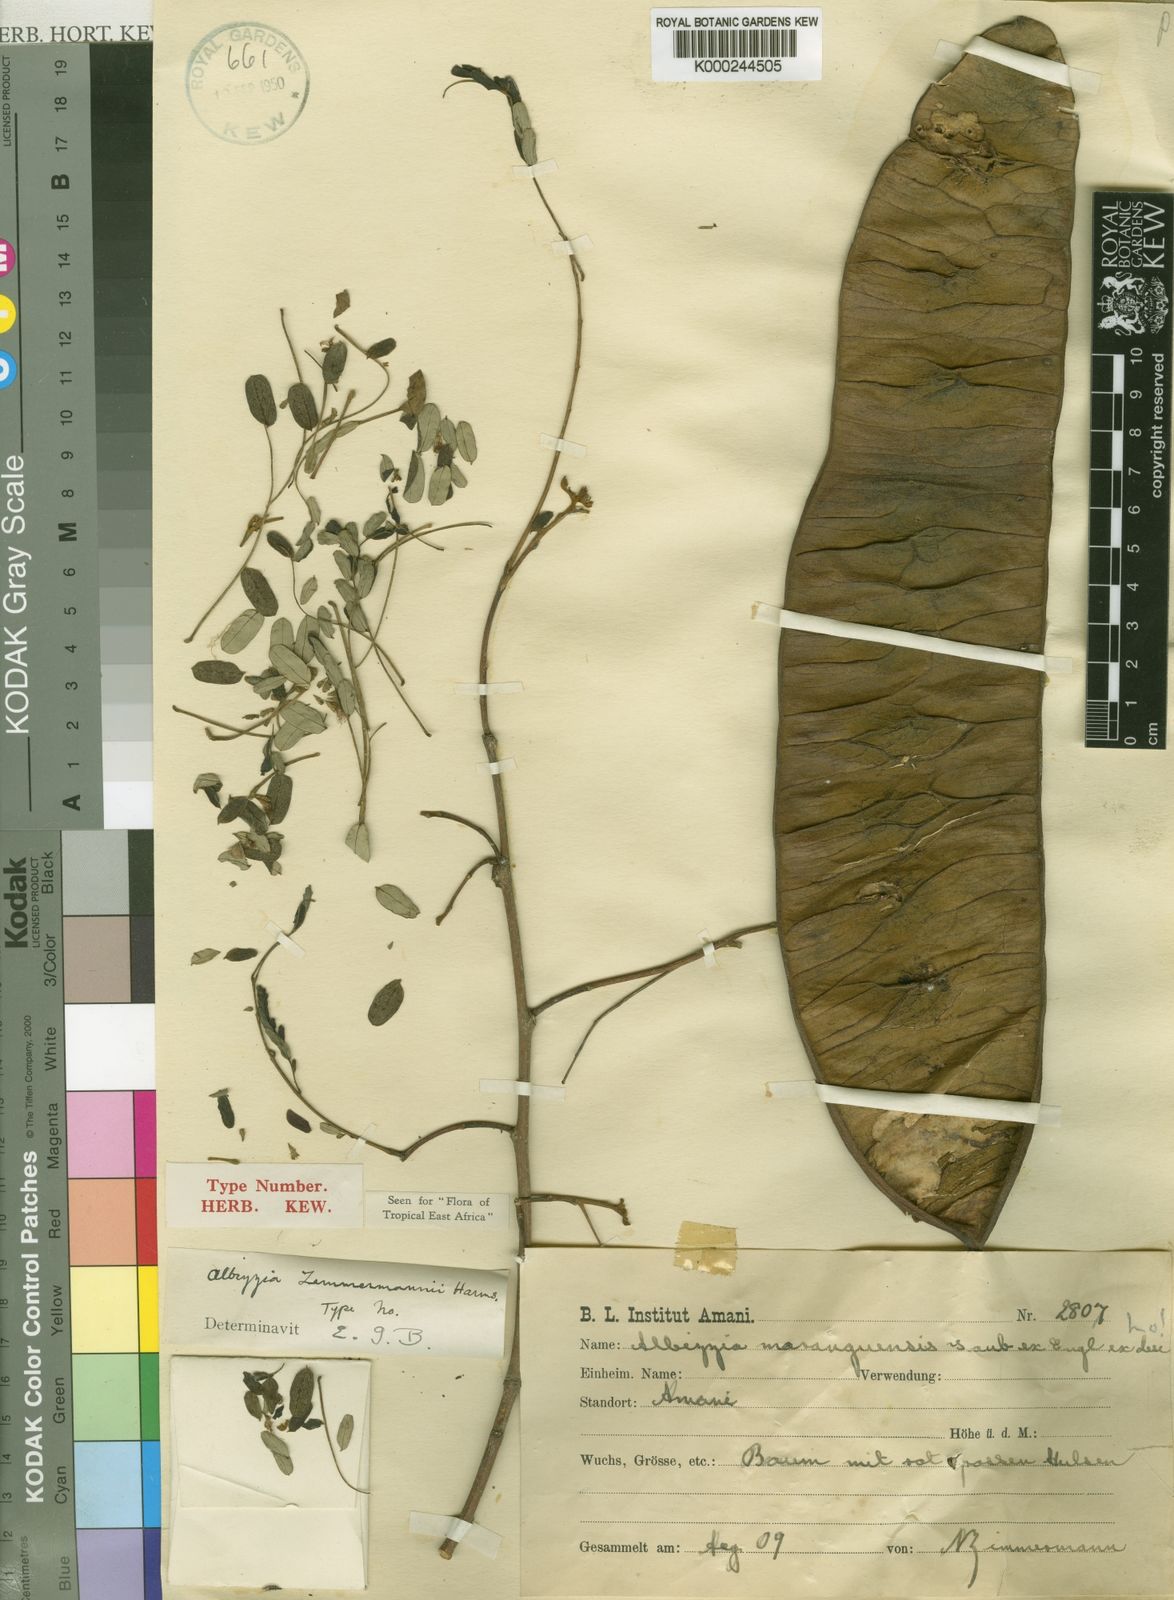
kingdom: Plantae
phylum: Tracheophyta
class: Magnoliopsida
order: Fabales
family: Fabaceae
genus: Albizia
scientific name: Albizia zimmermannii
